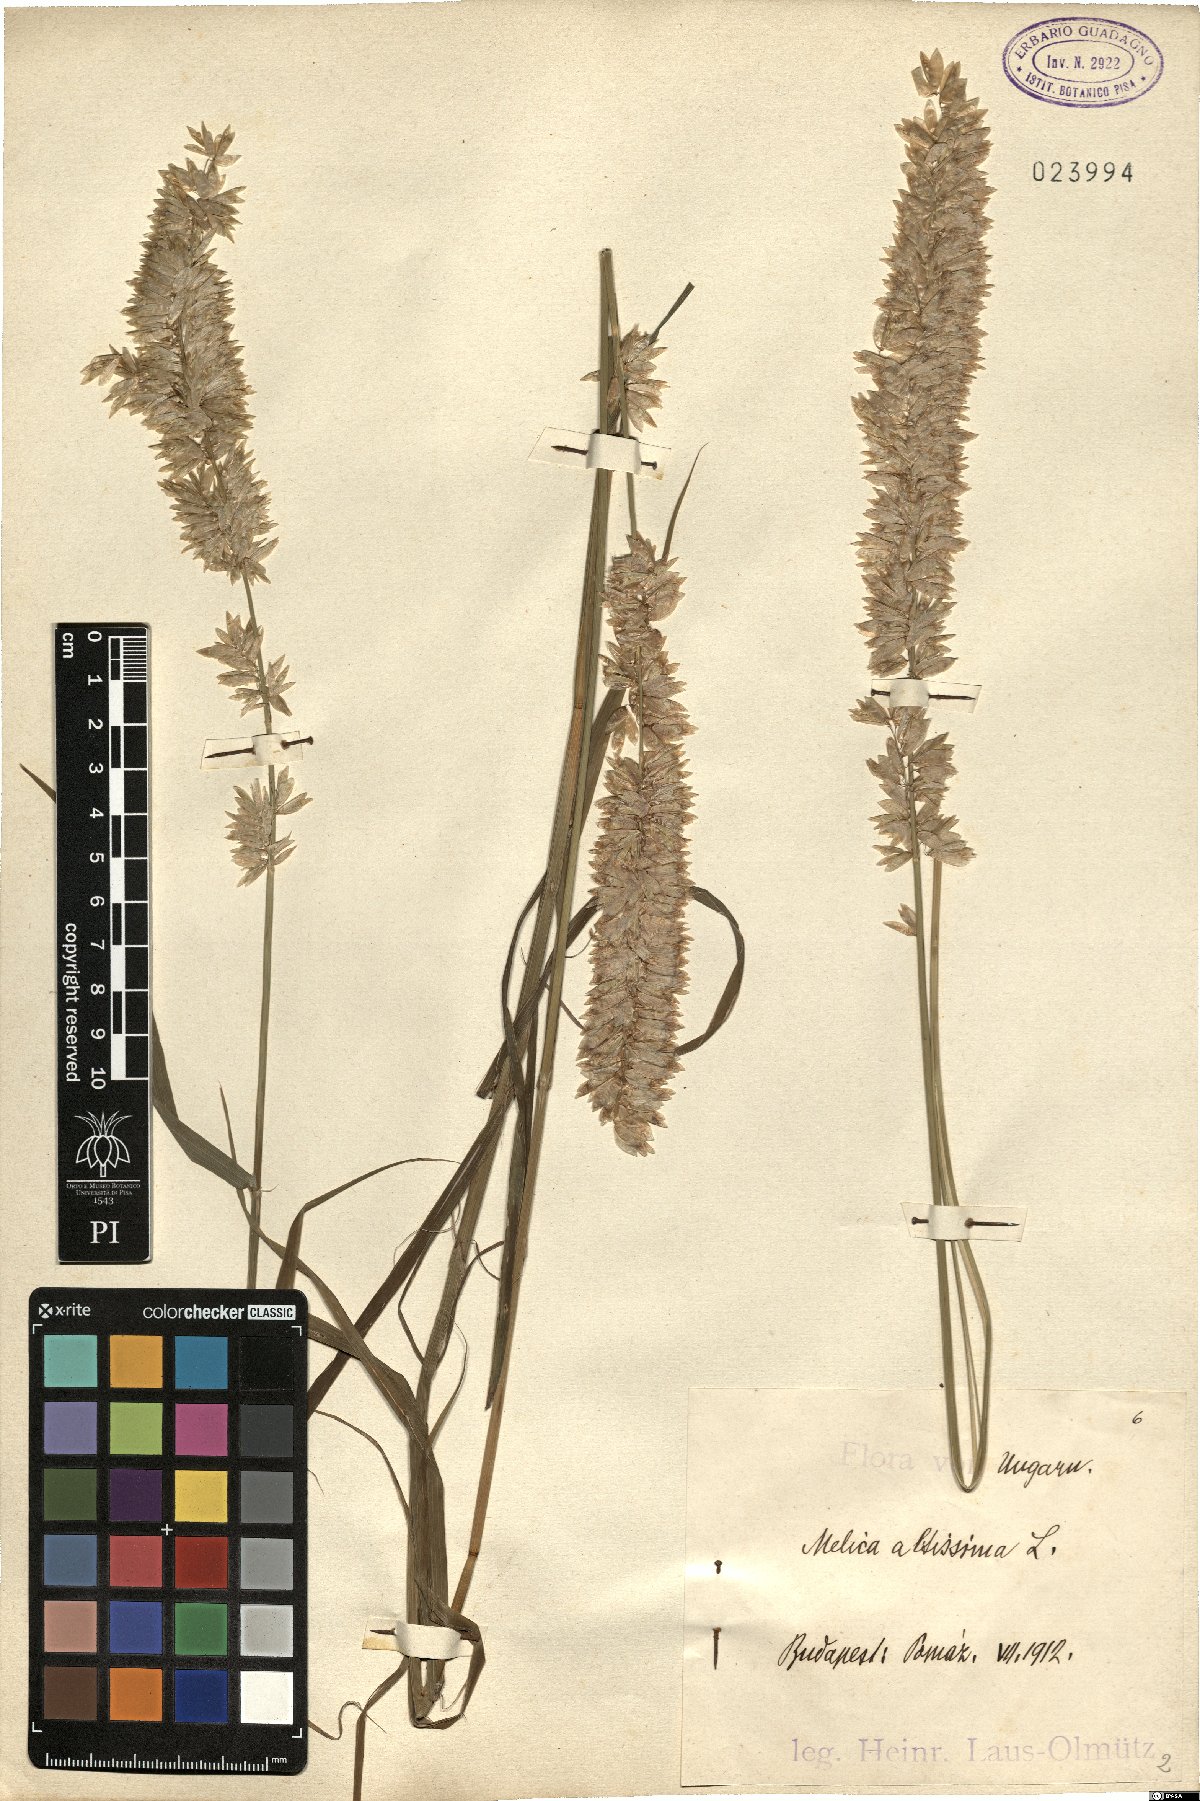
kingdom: Plantae
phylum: Tracheophyta
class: Liliopsida
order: Poales
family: Poaceae
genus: Melica
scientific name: Melica altissima
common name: Siberian melicgrass
